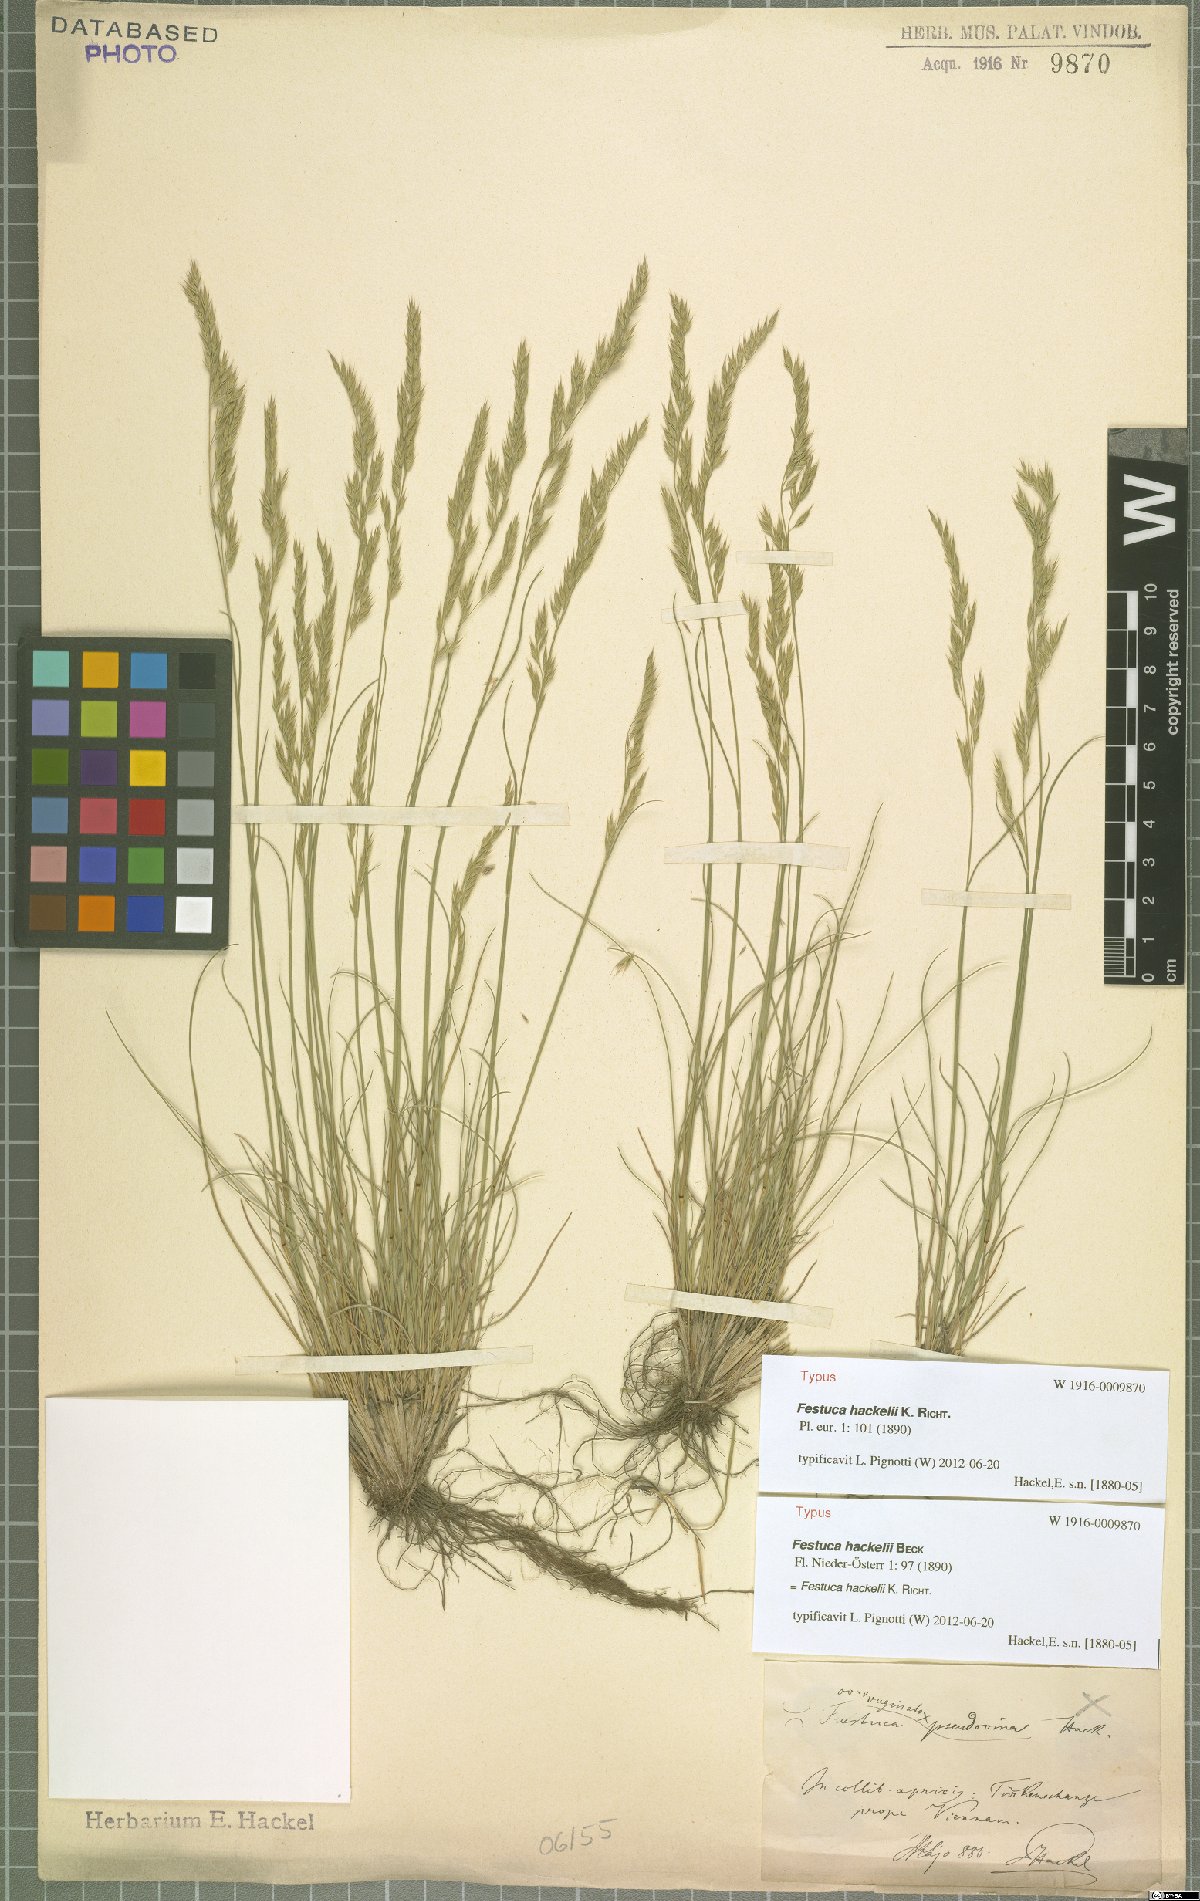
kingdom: Plantae
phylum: Tracheophyta
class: Liliopsida
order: Poales
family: Poaceae
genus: Festuca
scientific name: Festuca hackelii
